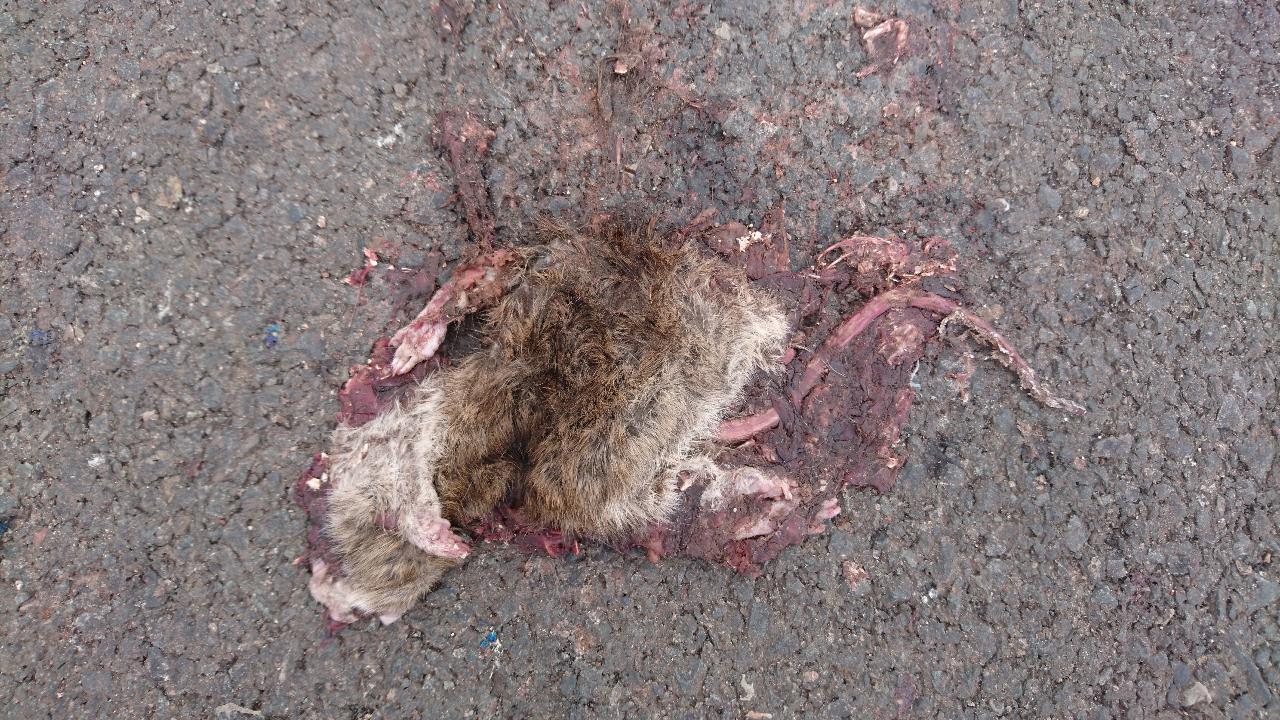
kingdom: Animalia
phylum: Chordata
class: Mammalia
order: Rodentia
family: Muridae
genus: Rattus
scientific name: Rattus norvegicus
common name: Brown rat
